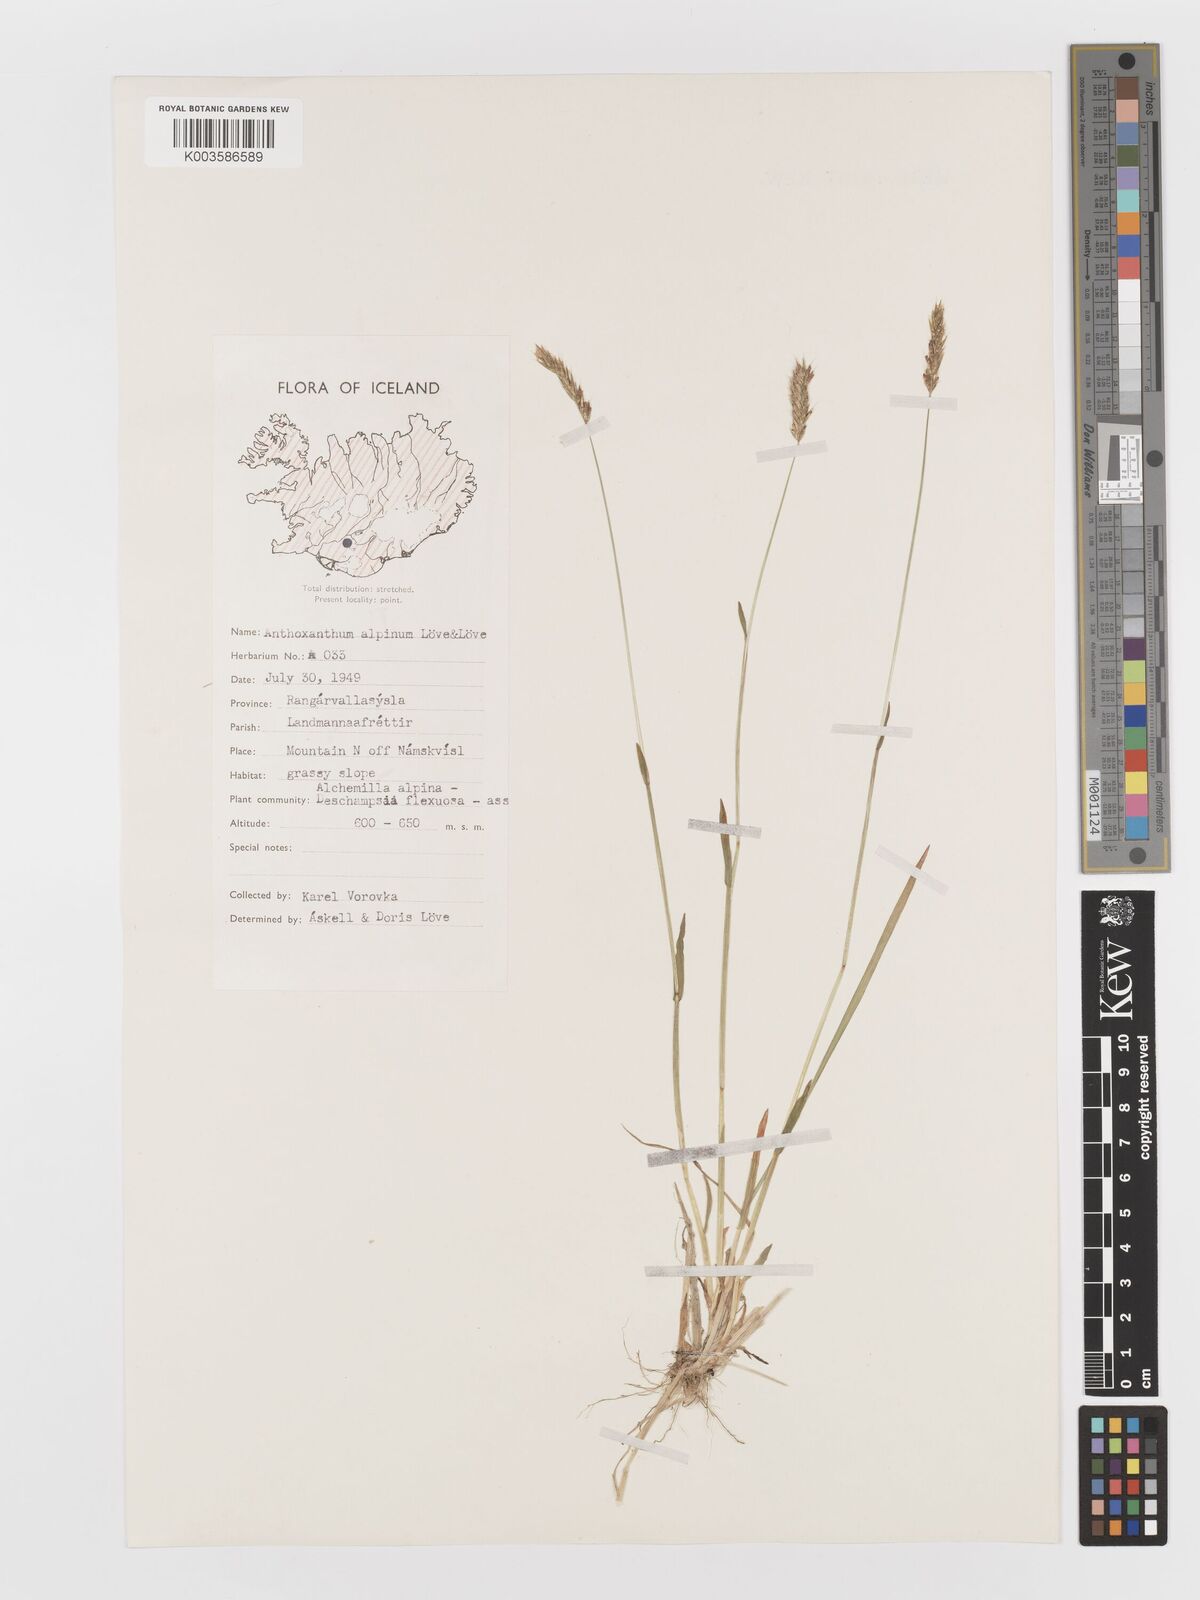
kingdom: Plantae
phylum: Tracheophyta
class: Liliopsida
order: Poales
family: Poaceae
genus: Anthoxanthum
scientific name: Anthoxanthum odoratum
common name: Sweet vernalgrass
